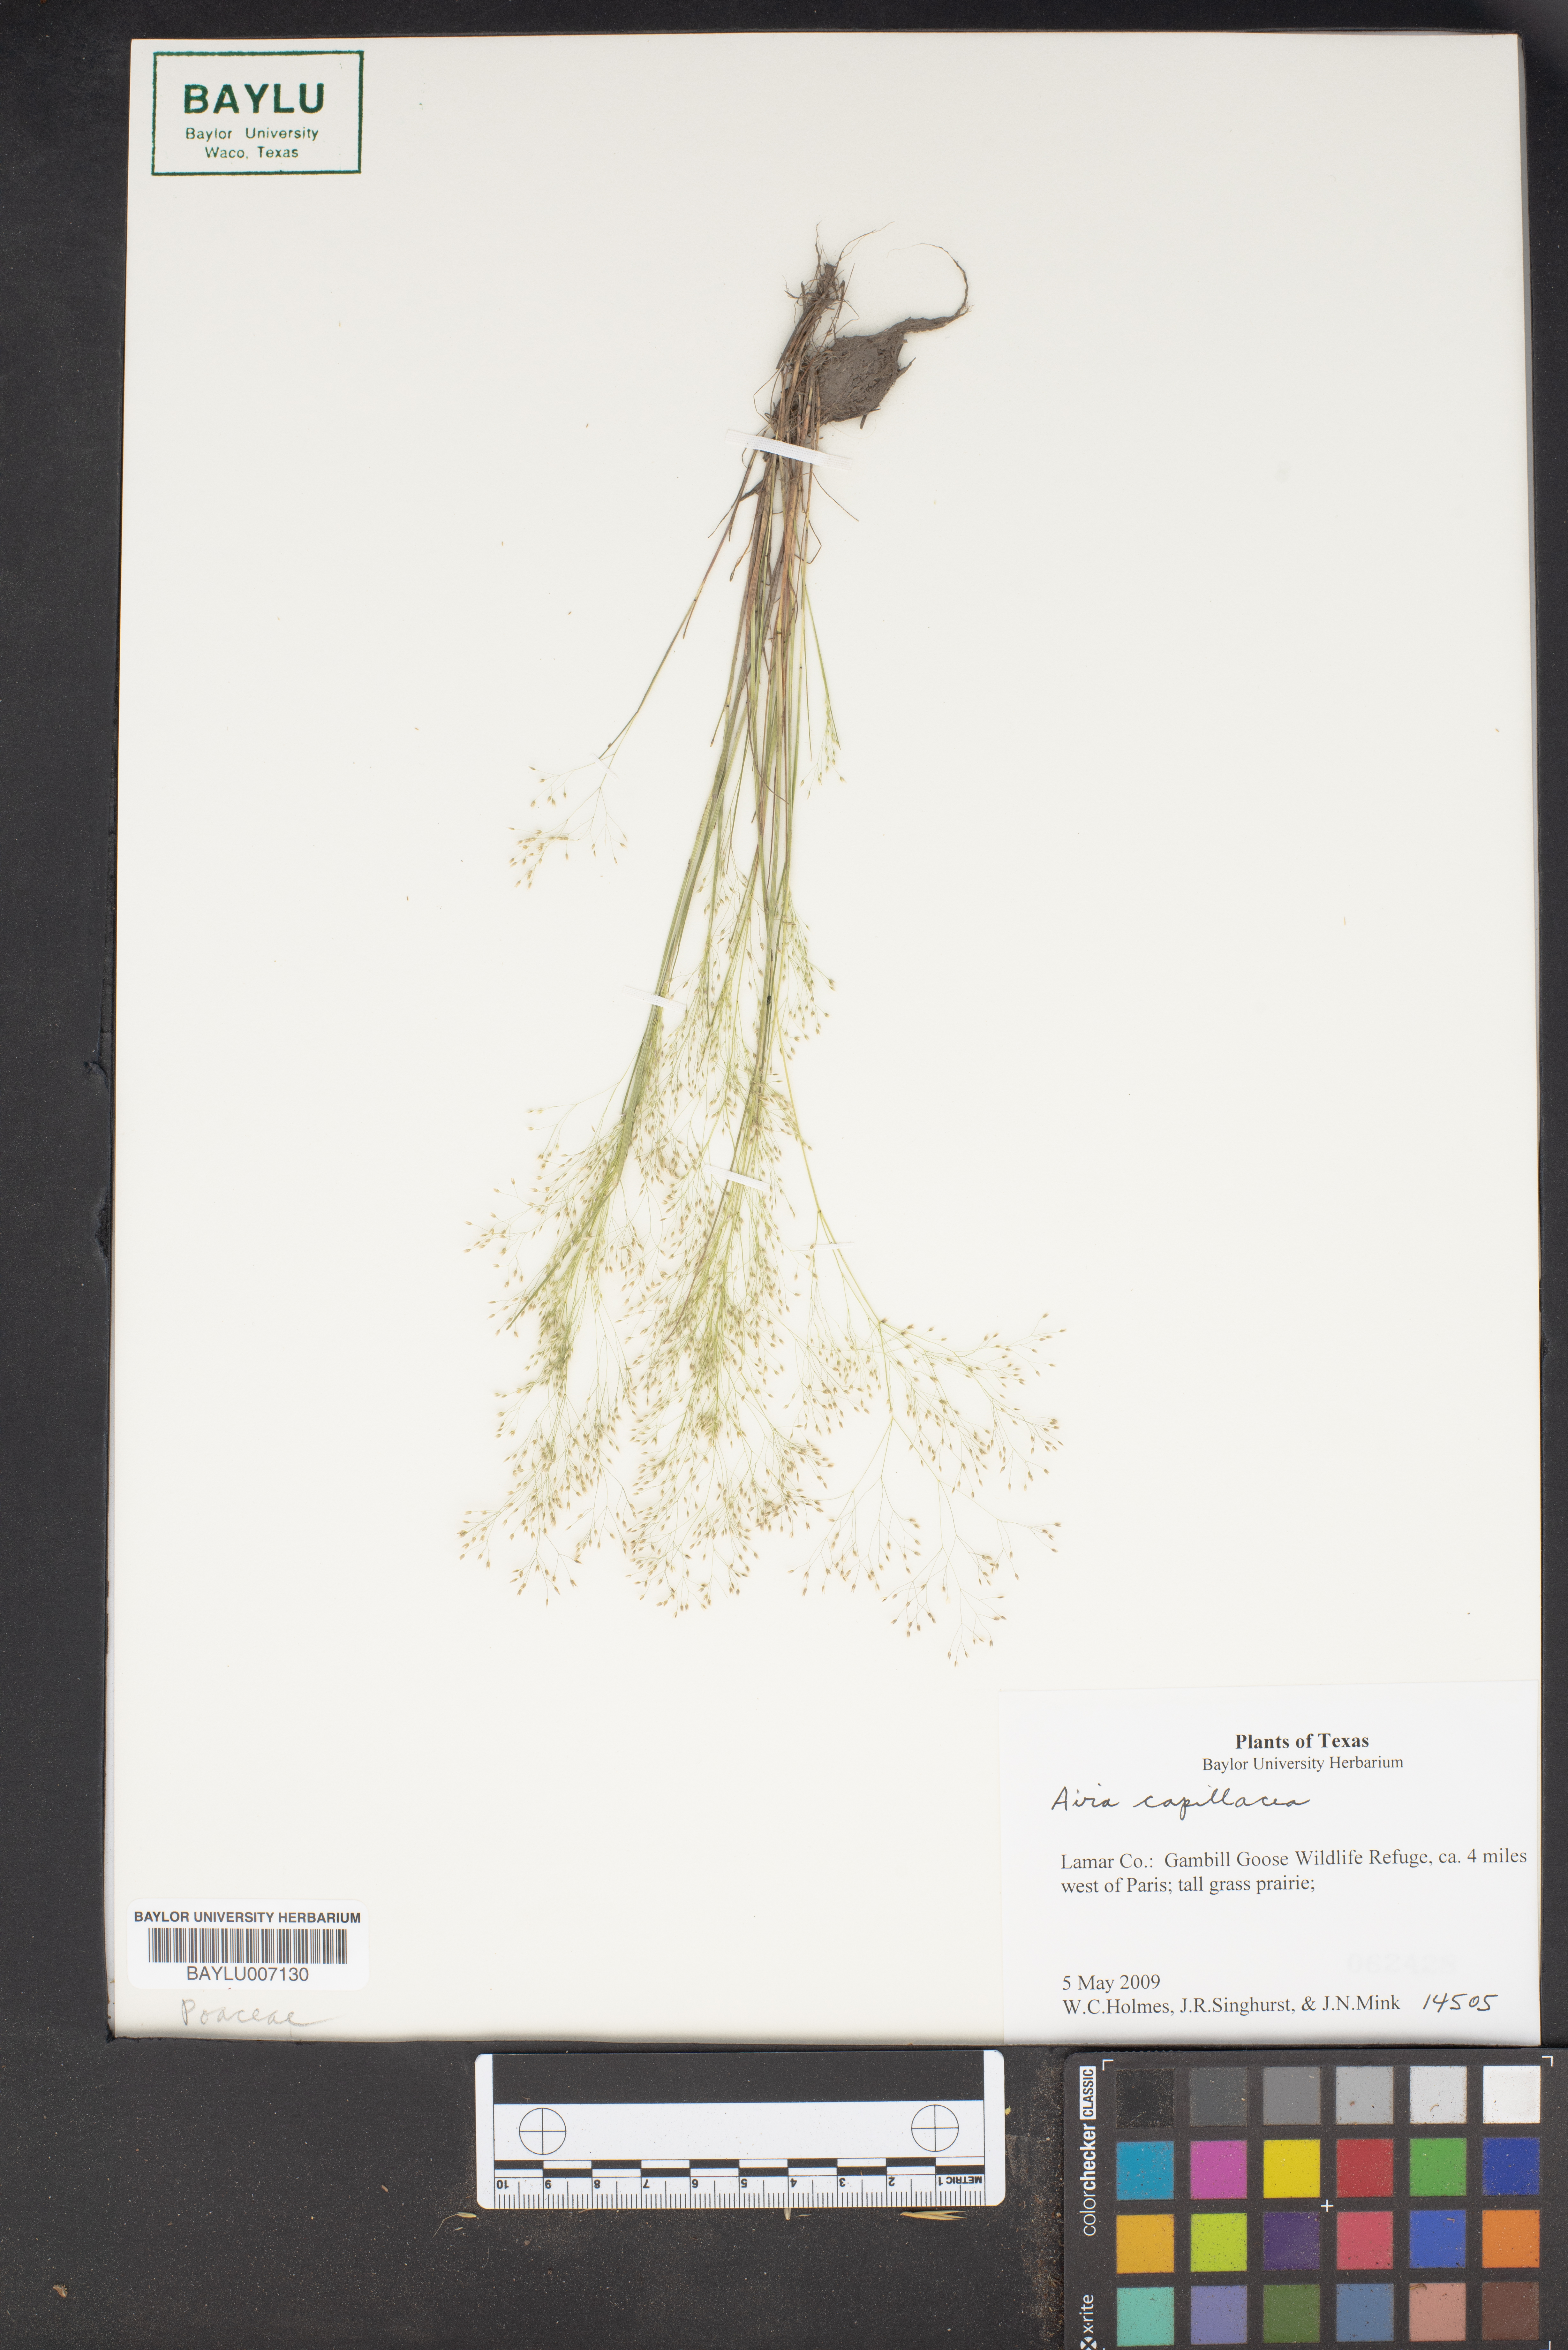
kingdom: Plantae
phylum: Tracheophyta
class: Liliopsida
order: Poales
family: Poaceae
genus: Aira
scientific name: Aira capillaris
